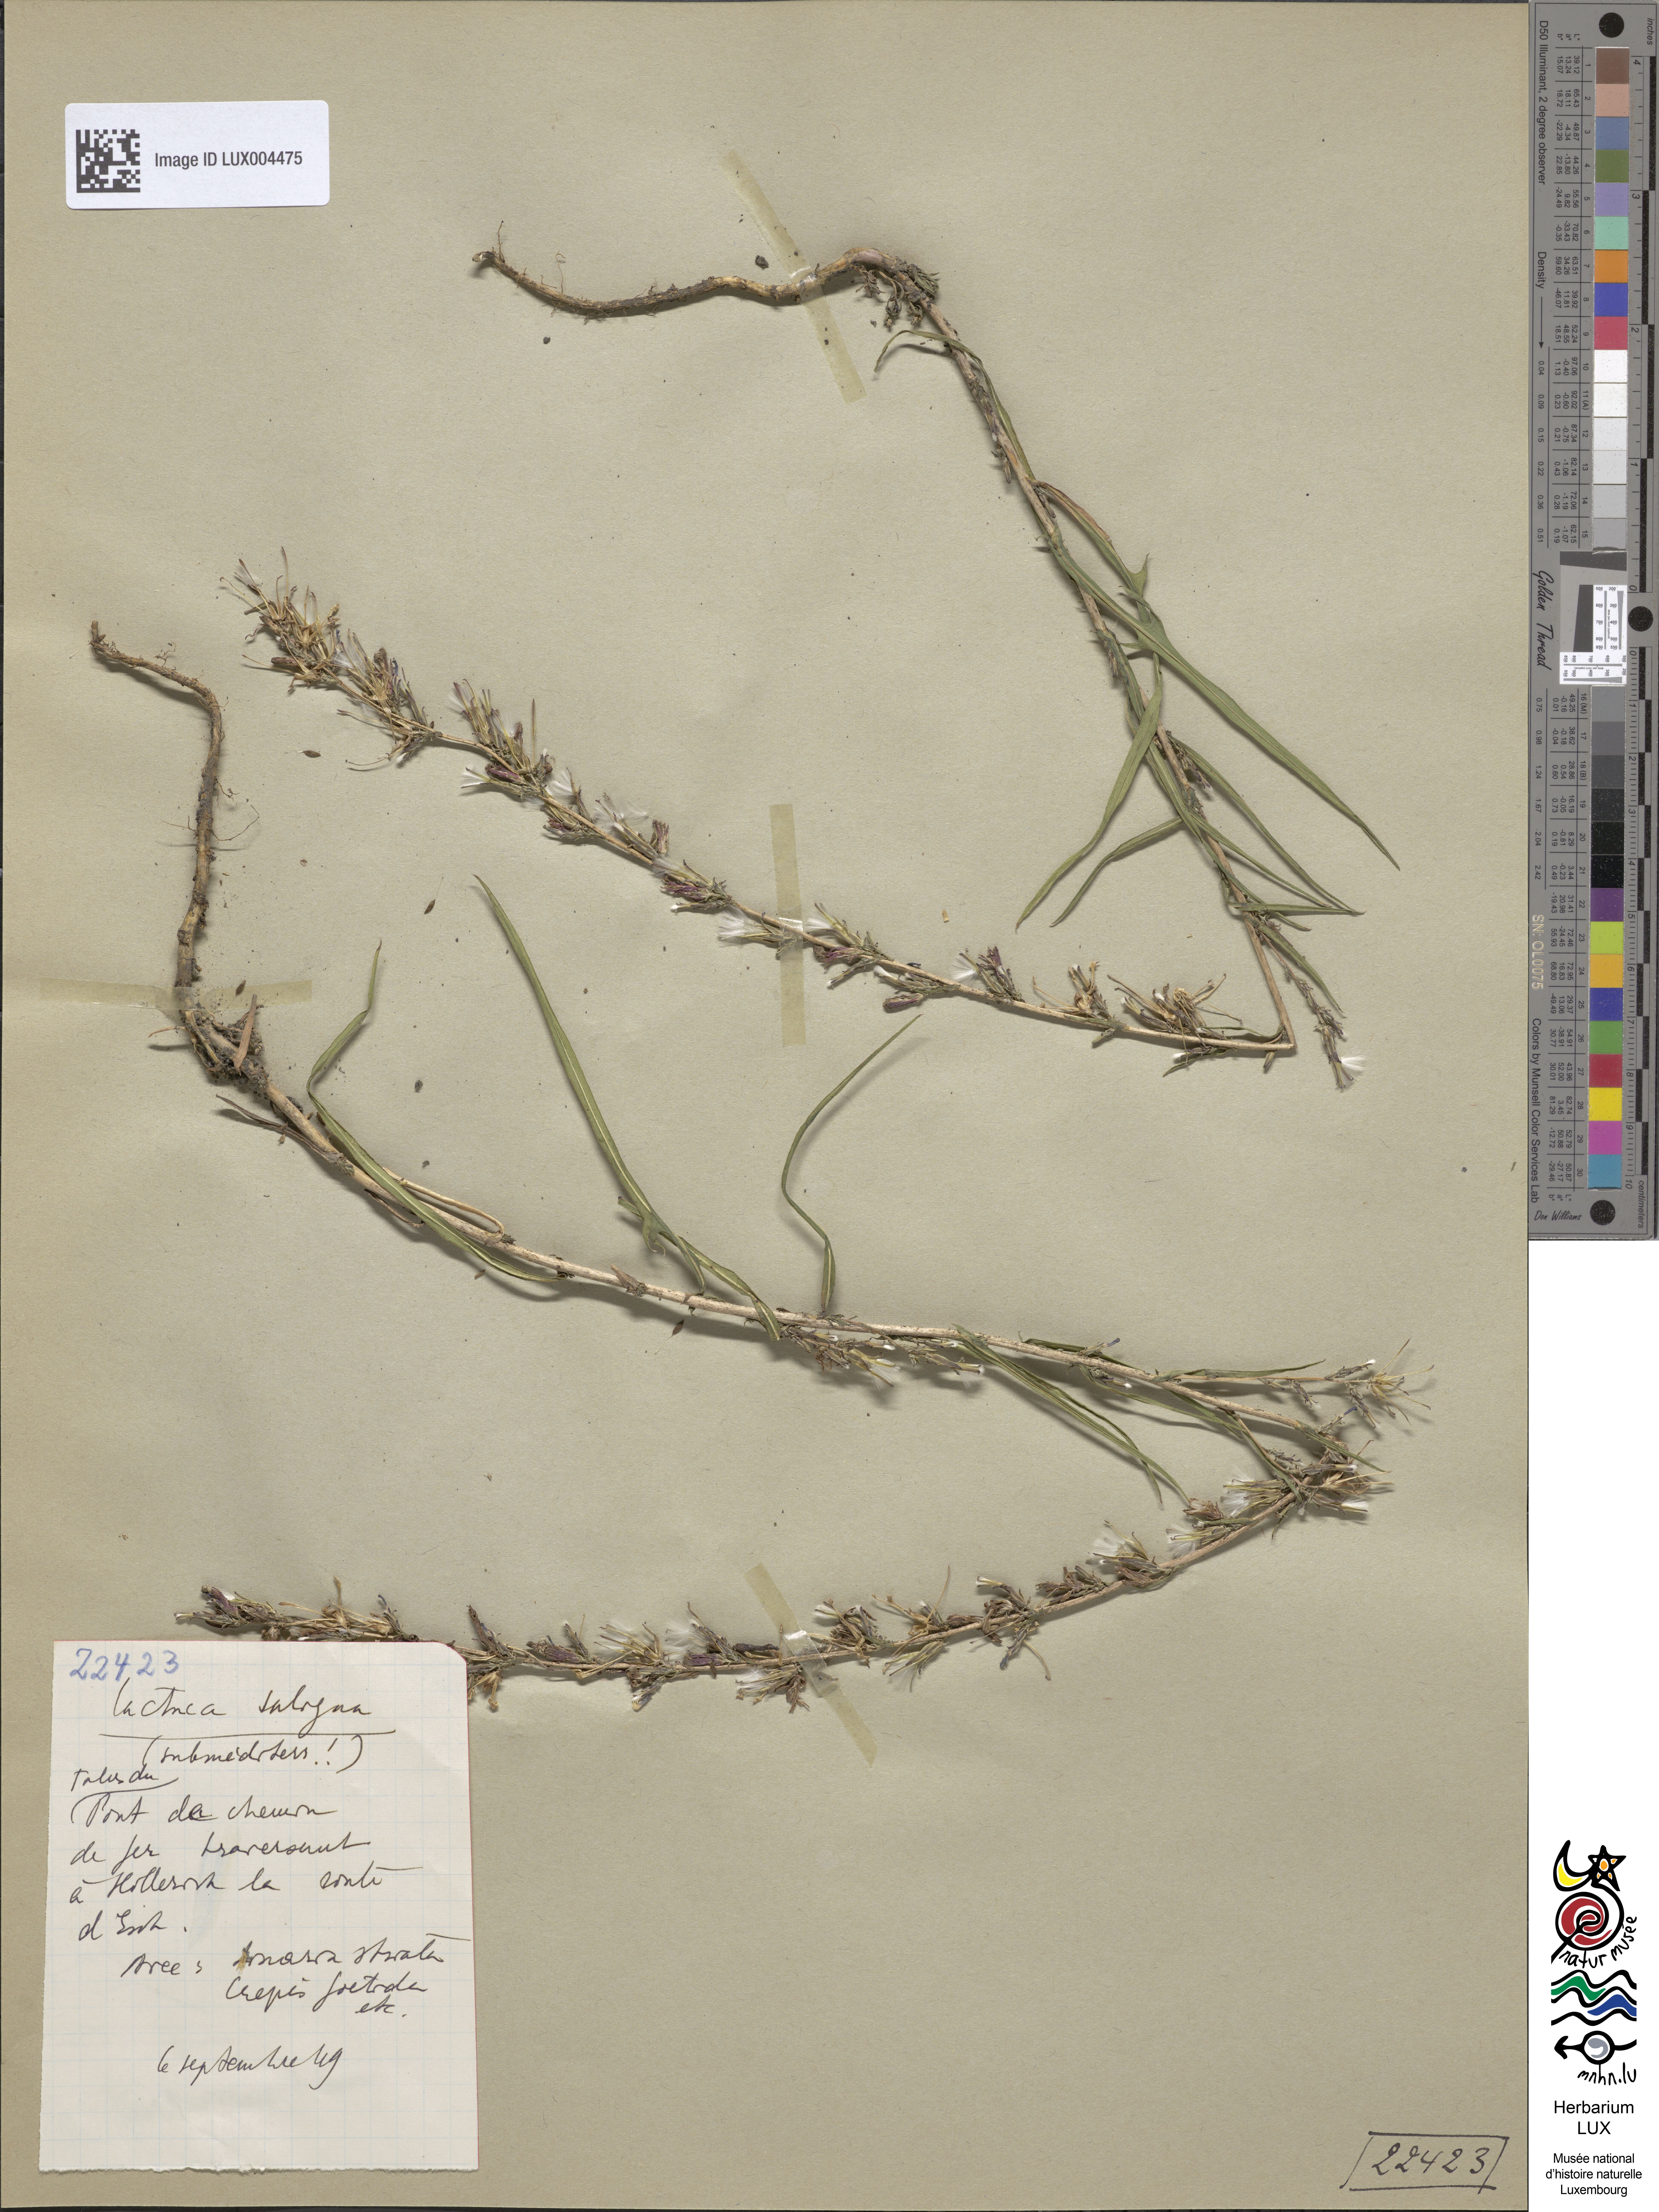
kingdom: Plantae
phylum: Tracheophyta
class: Magnoliopsida
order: Asterales
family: Asteraceae
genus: Lactuca
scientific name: Lactuca saligna
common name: Wild lettuce
